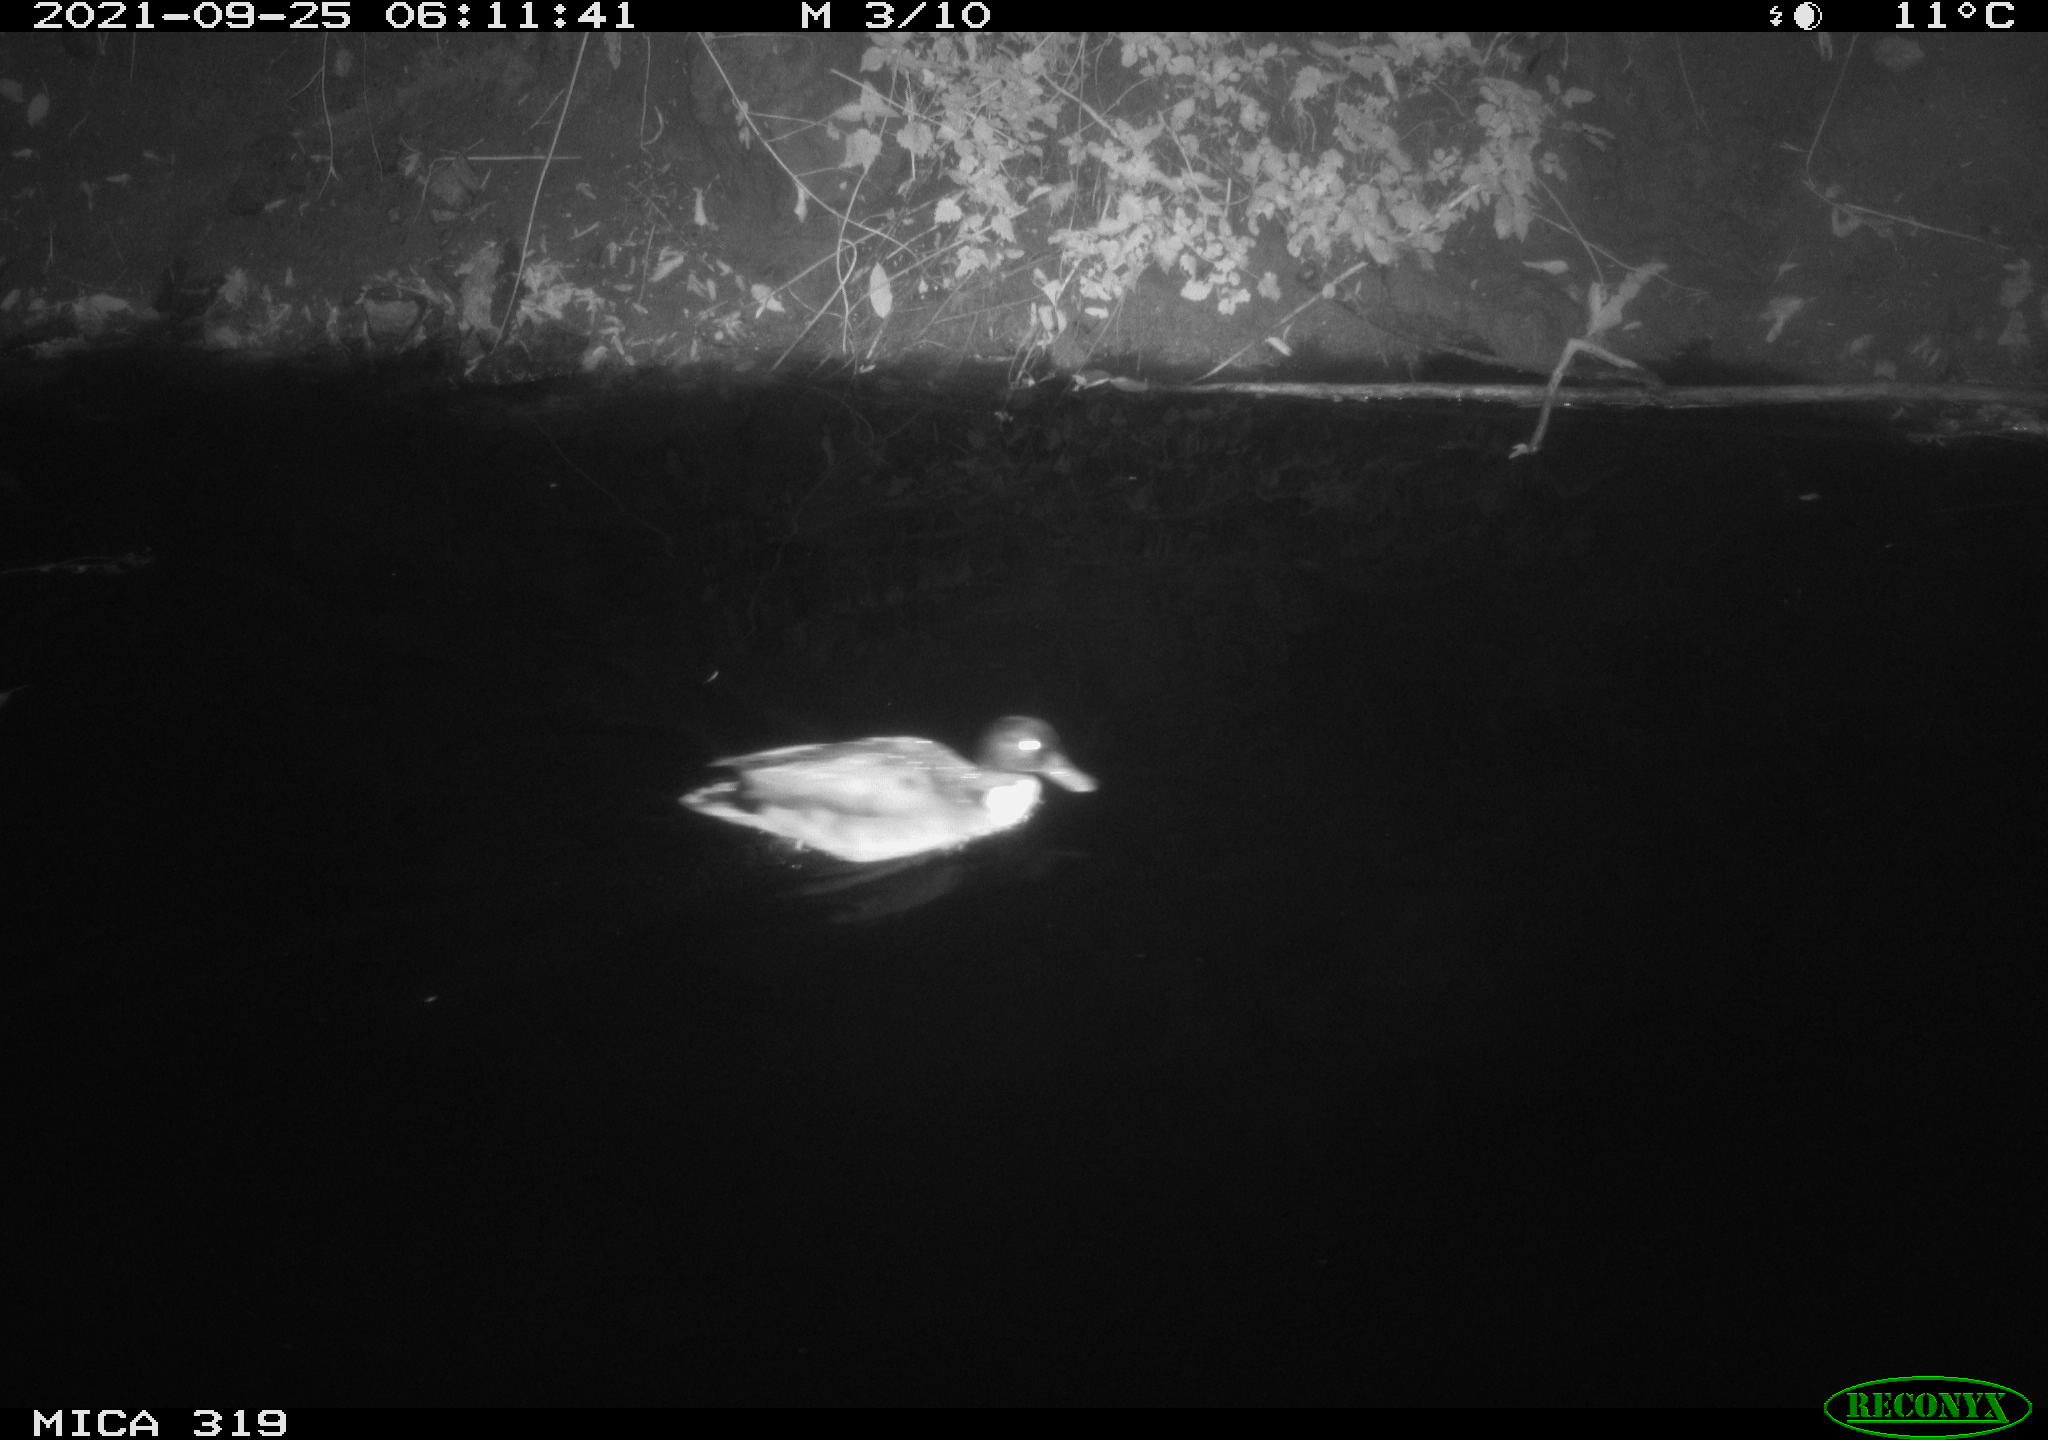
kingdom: Animalia
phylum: Chordata
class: Aves
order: Anseriformes
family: Anatidae
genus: Anas
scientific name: Anas platyrhynchos
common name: Mallard
